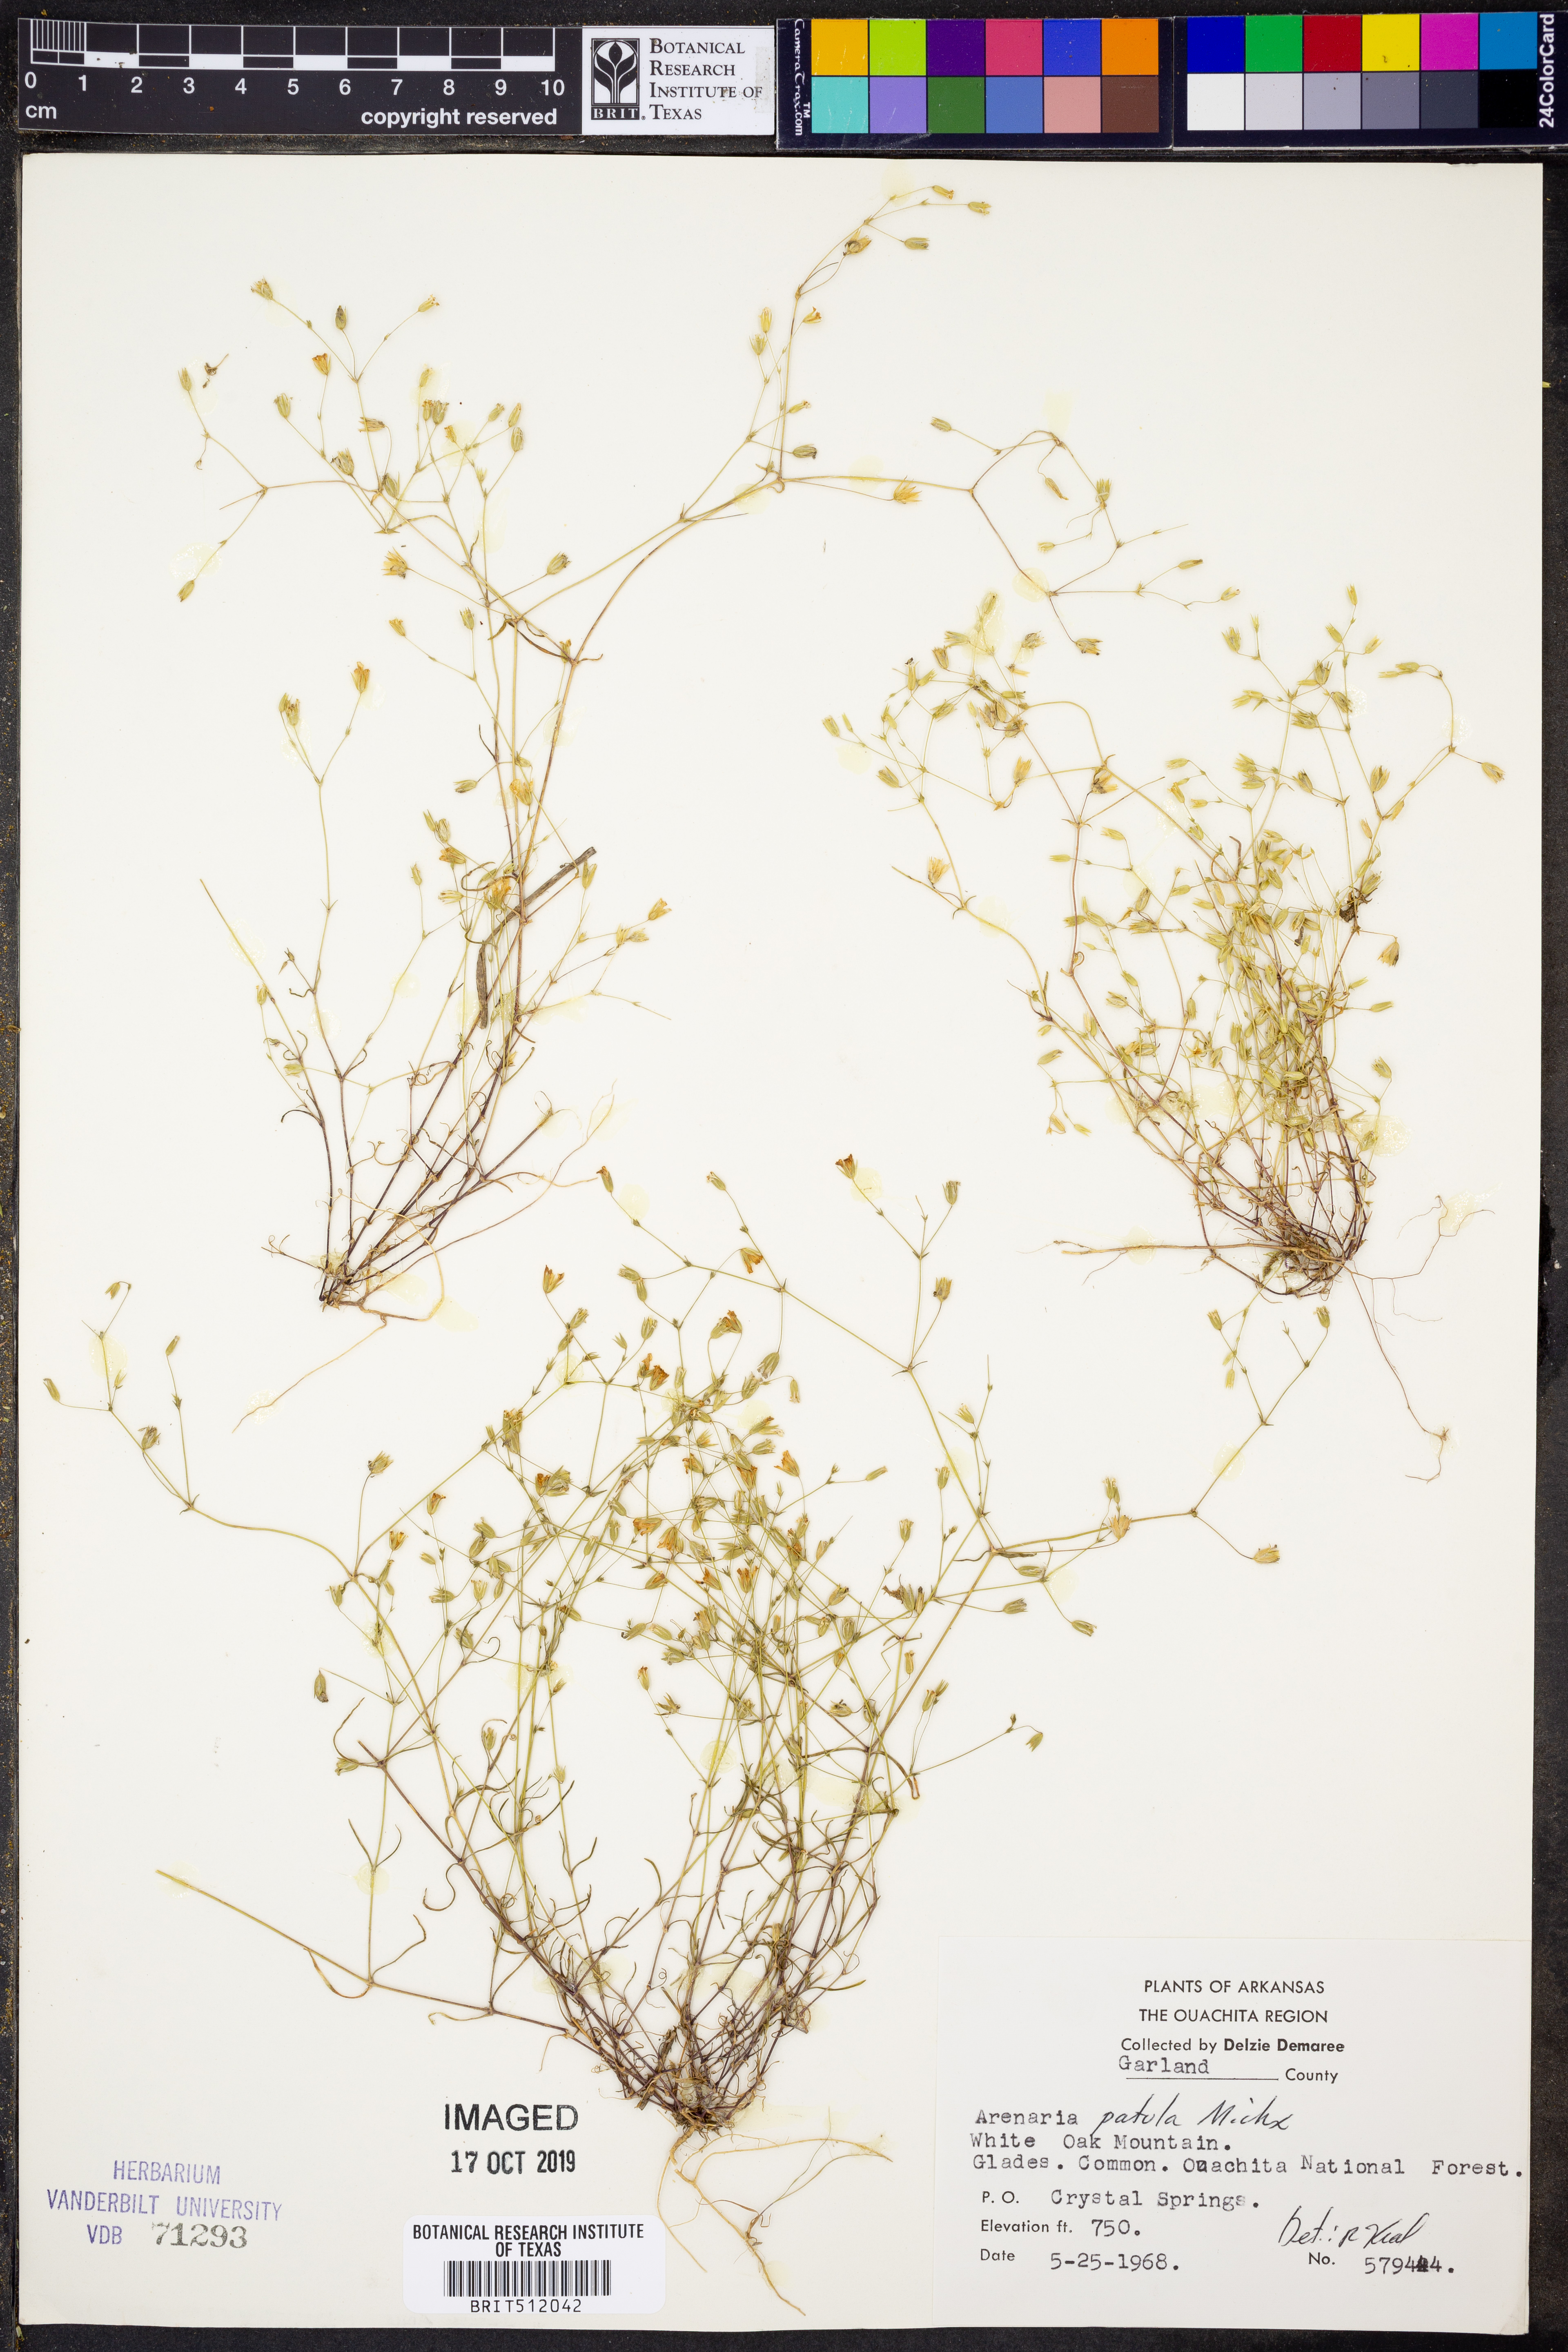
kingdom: Plantae
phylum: Tracheophyta
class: Magnoliopsida
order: Caryophyllales
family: Caryophyllaceae
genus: Mononeuria
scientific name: Mononeuria patula
